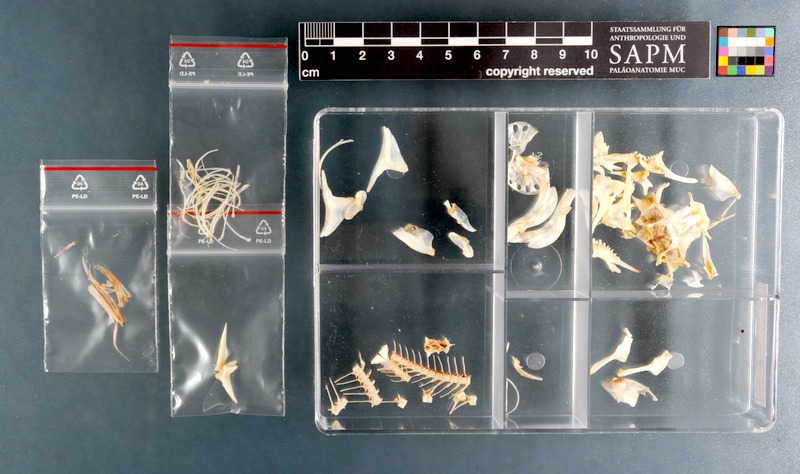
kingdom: Animalia
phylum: Chordata
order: Gobiesociformes
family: Gobiesocidae
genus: Chorisochismus
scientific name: Chorisochismus dentex
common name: Rocksucker
